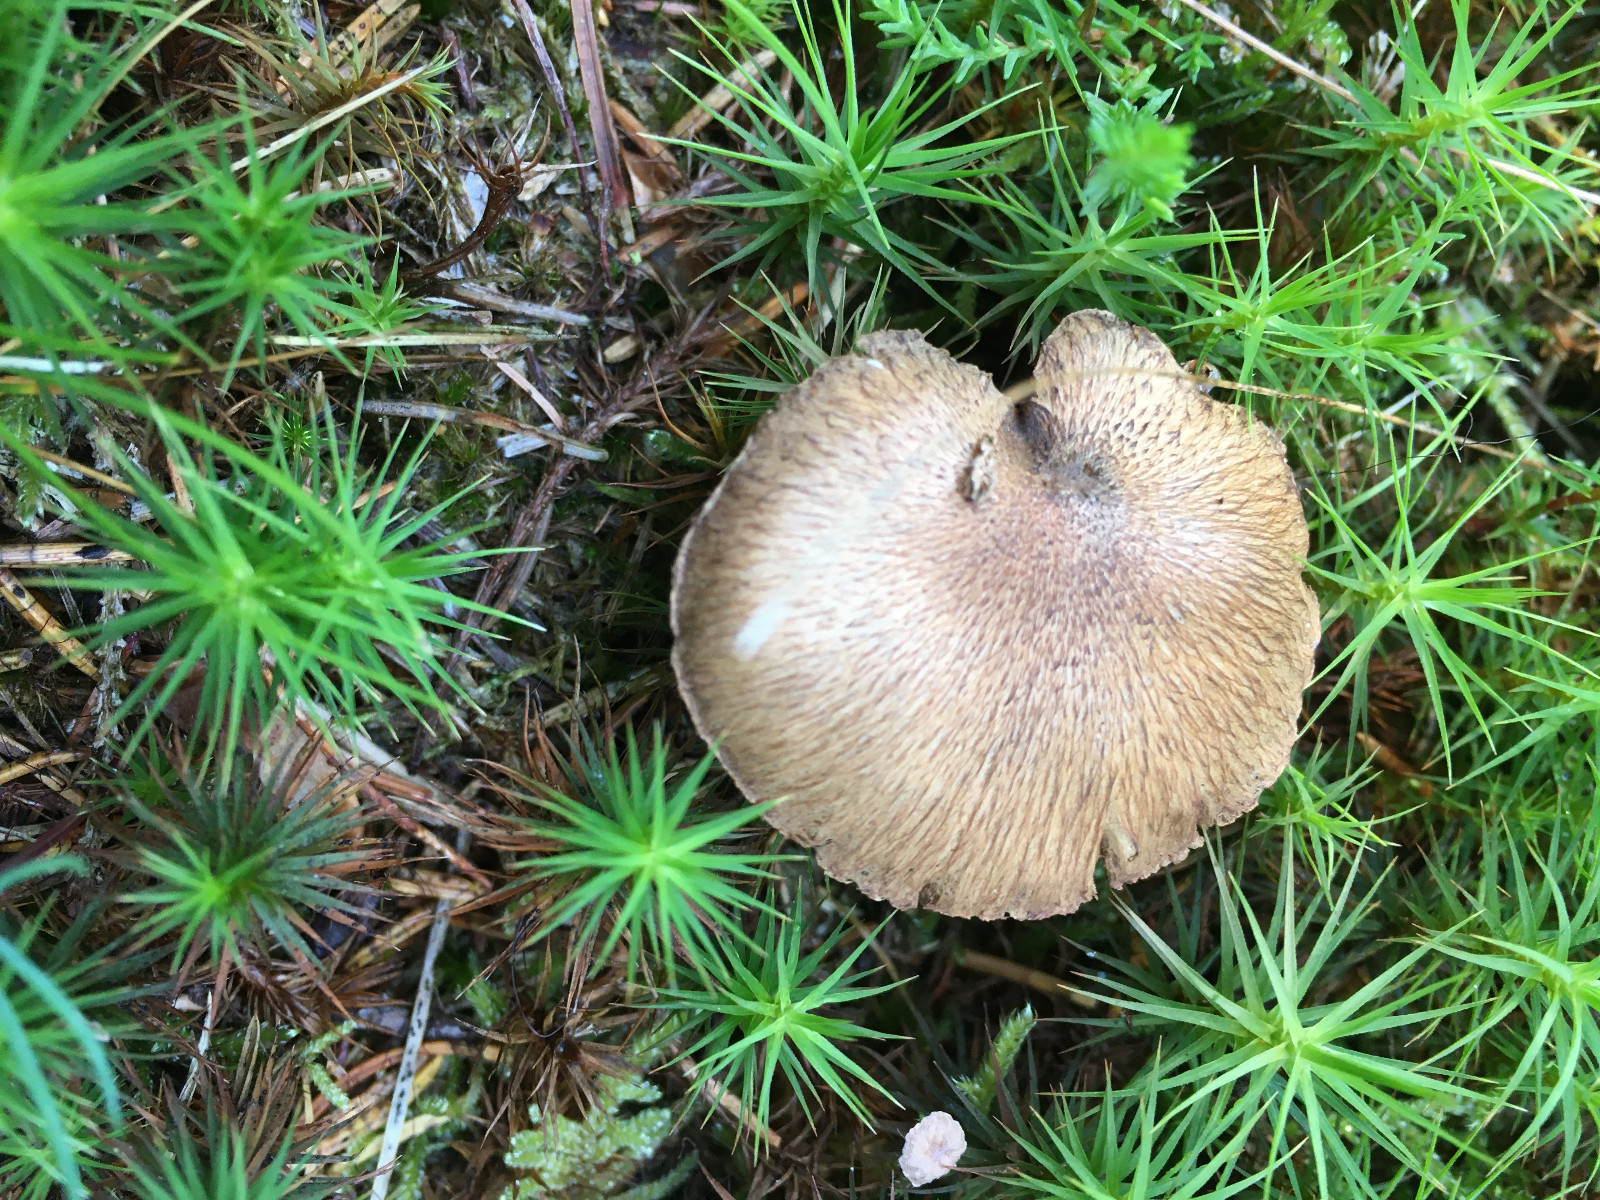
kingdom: Fungi
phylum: Basidiomycota
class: Agaricomycetes
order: Agaricales
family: Inocybaceae
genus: Inocybe
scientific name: Inocybe
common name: trævlhat
